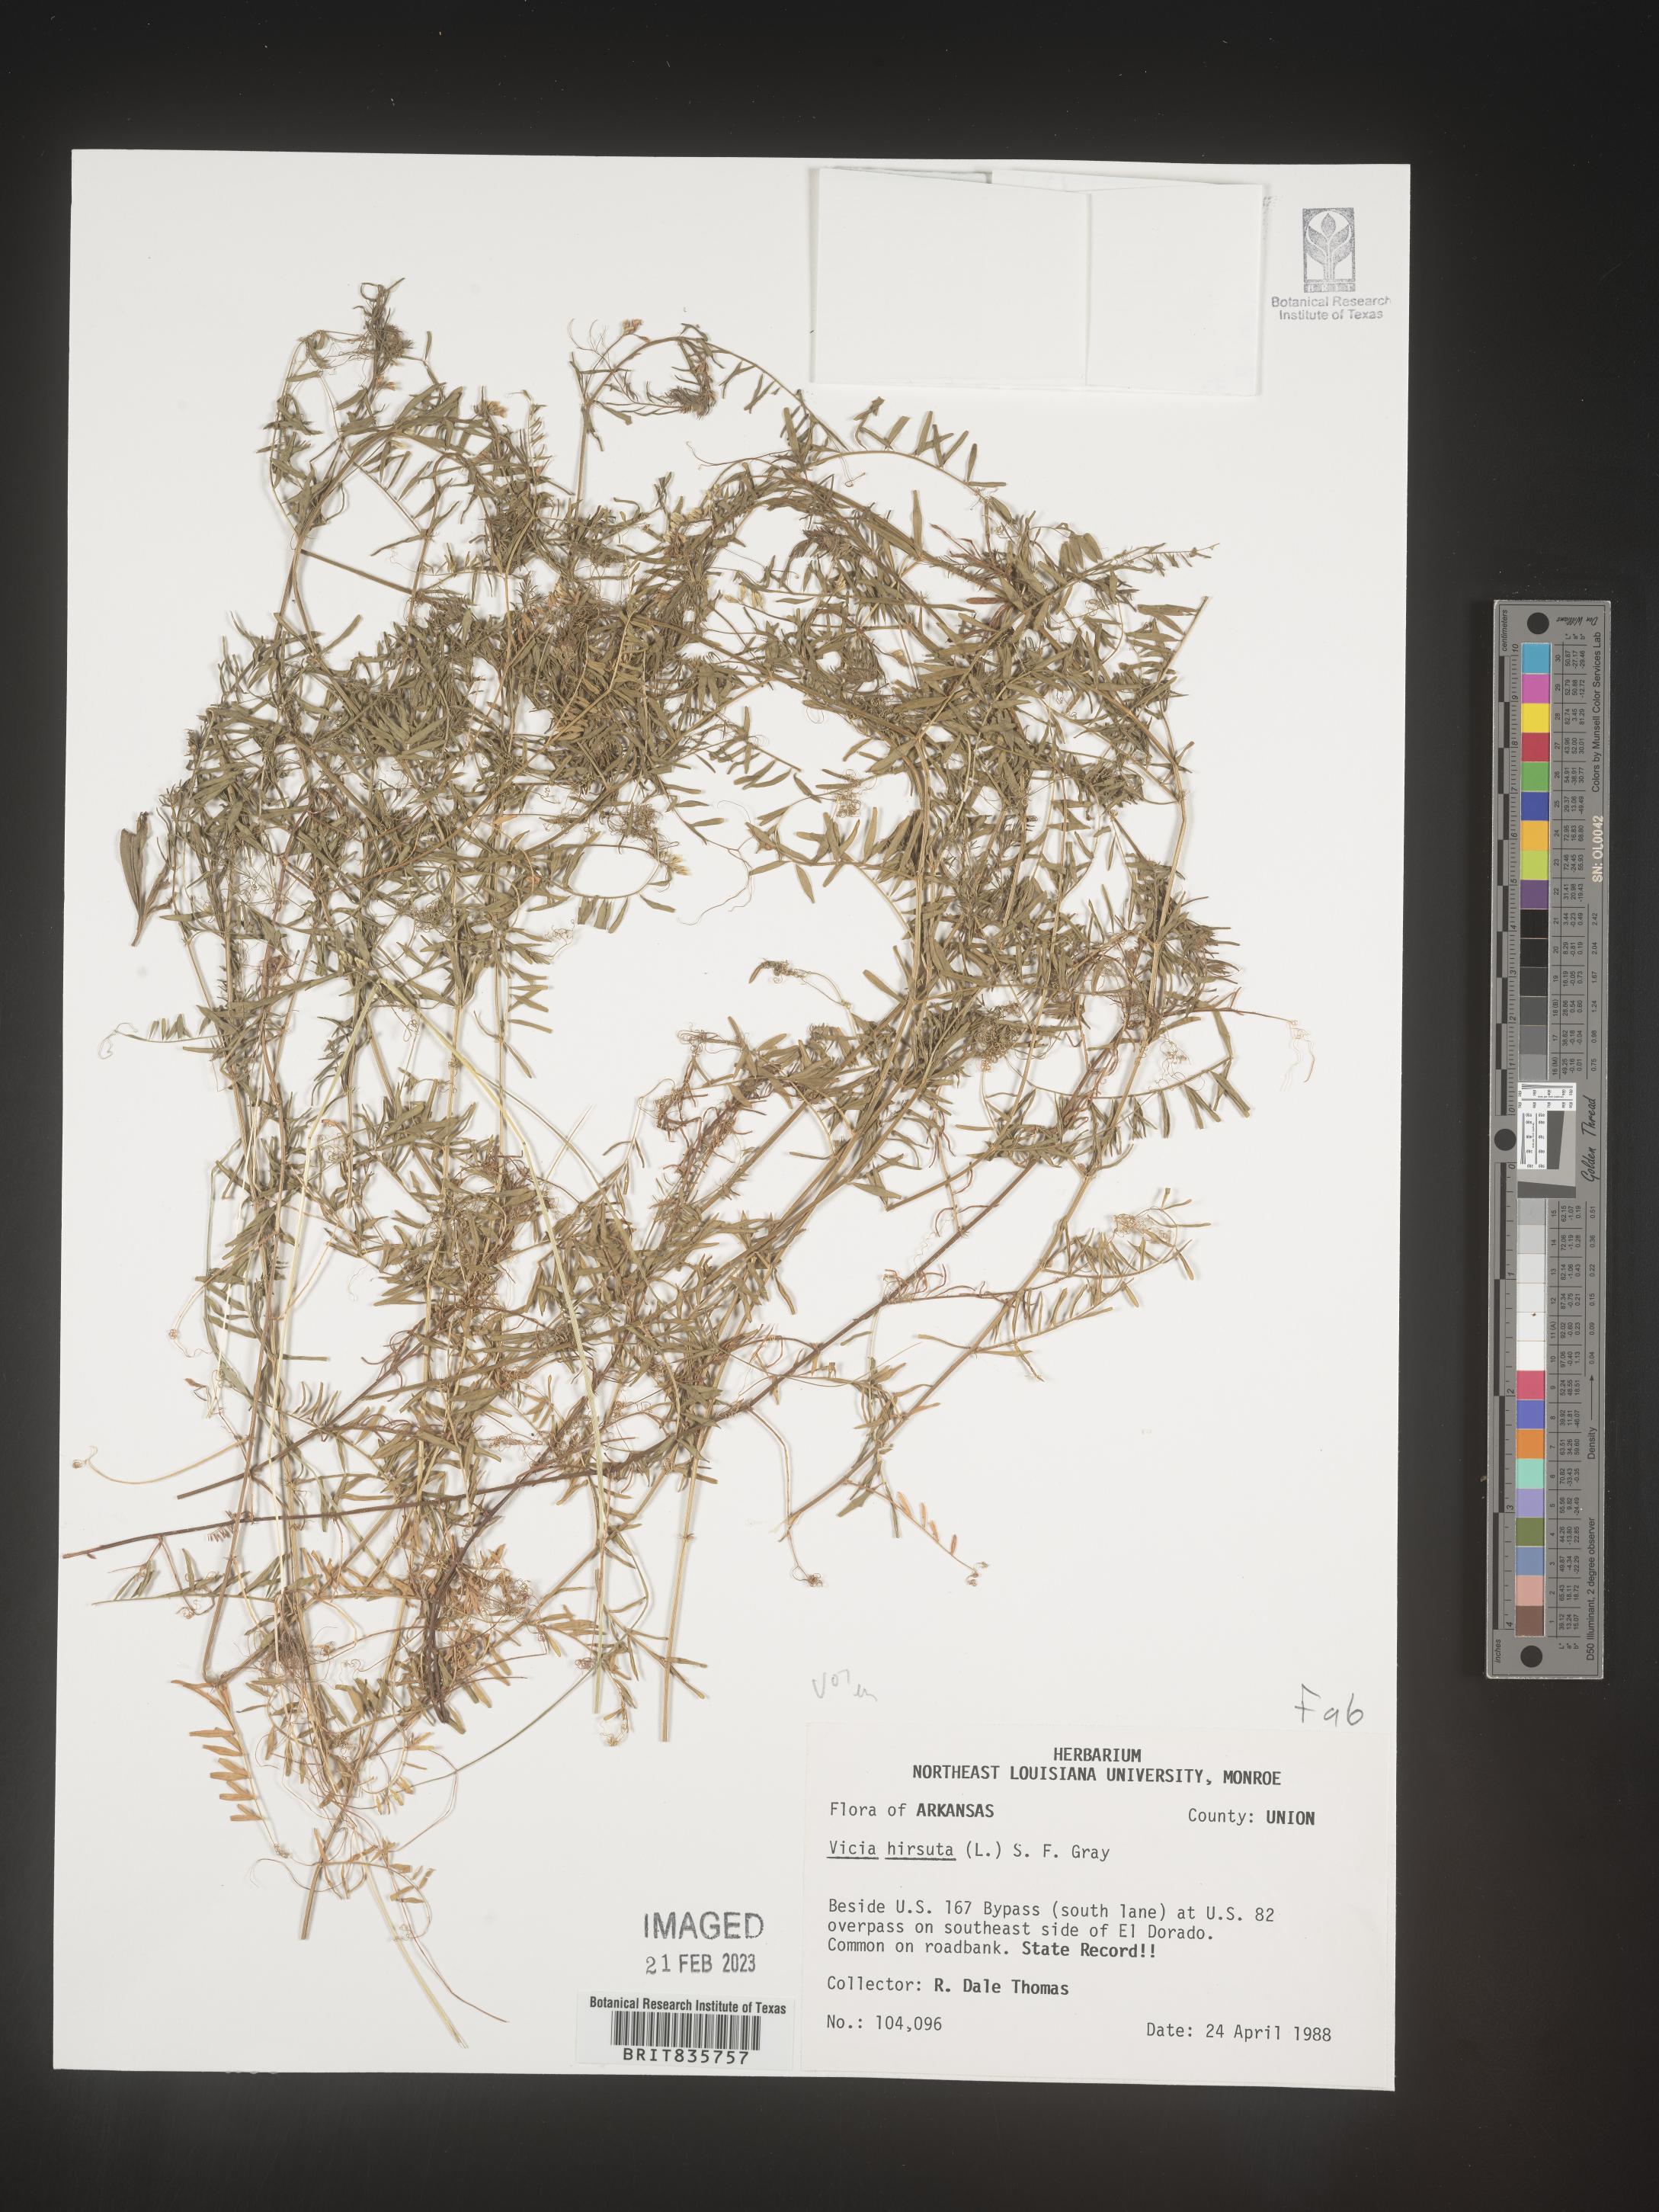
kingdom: Plantae
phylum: Tracheophyta
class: Magnoliopsida
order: Fabales
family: Fabaceae
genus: Vicia
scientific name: Vicia
